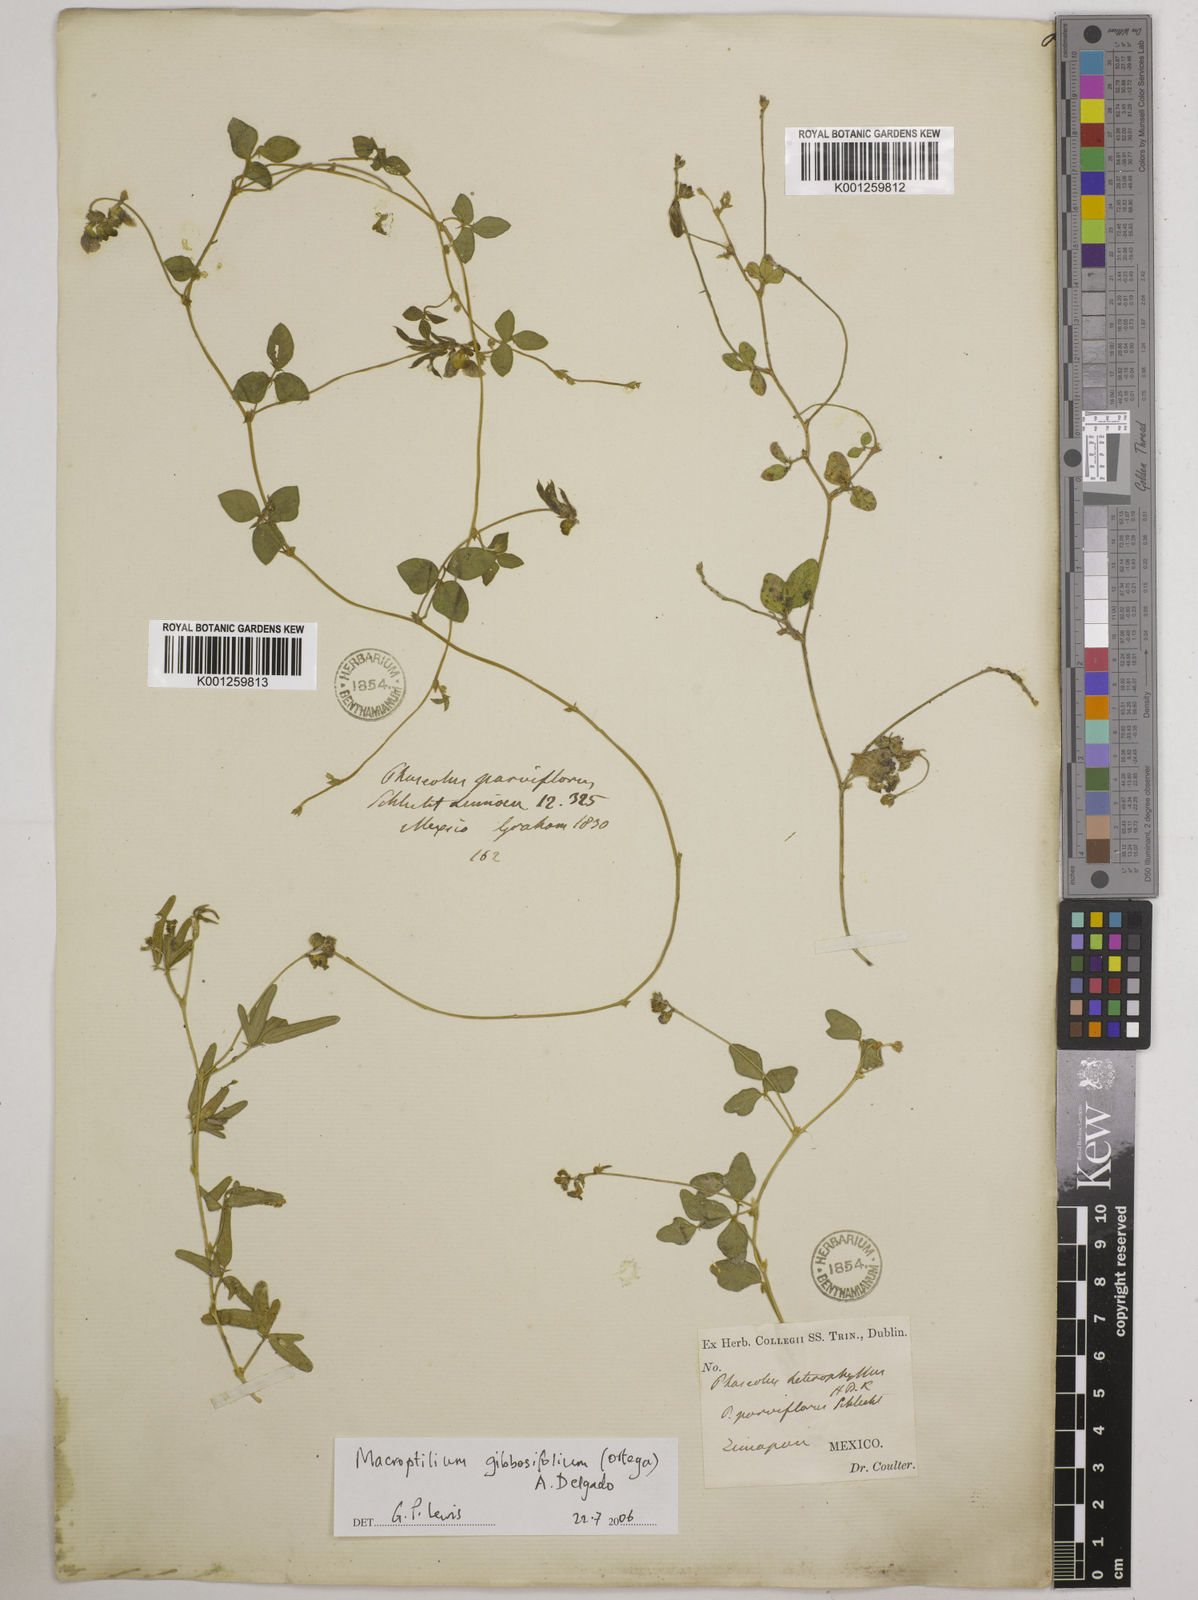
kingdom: Plantae
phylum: Tracheophyta
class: Magnoliopsida
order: Fabales
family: Fabaceae
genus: Macroptilium
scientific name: Macroptilium gibbosifolium
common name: Variableleaf bushbean
